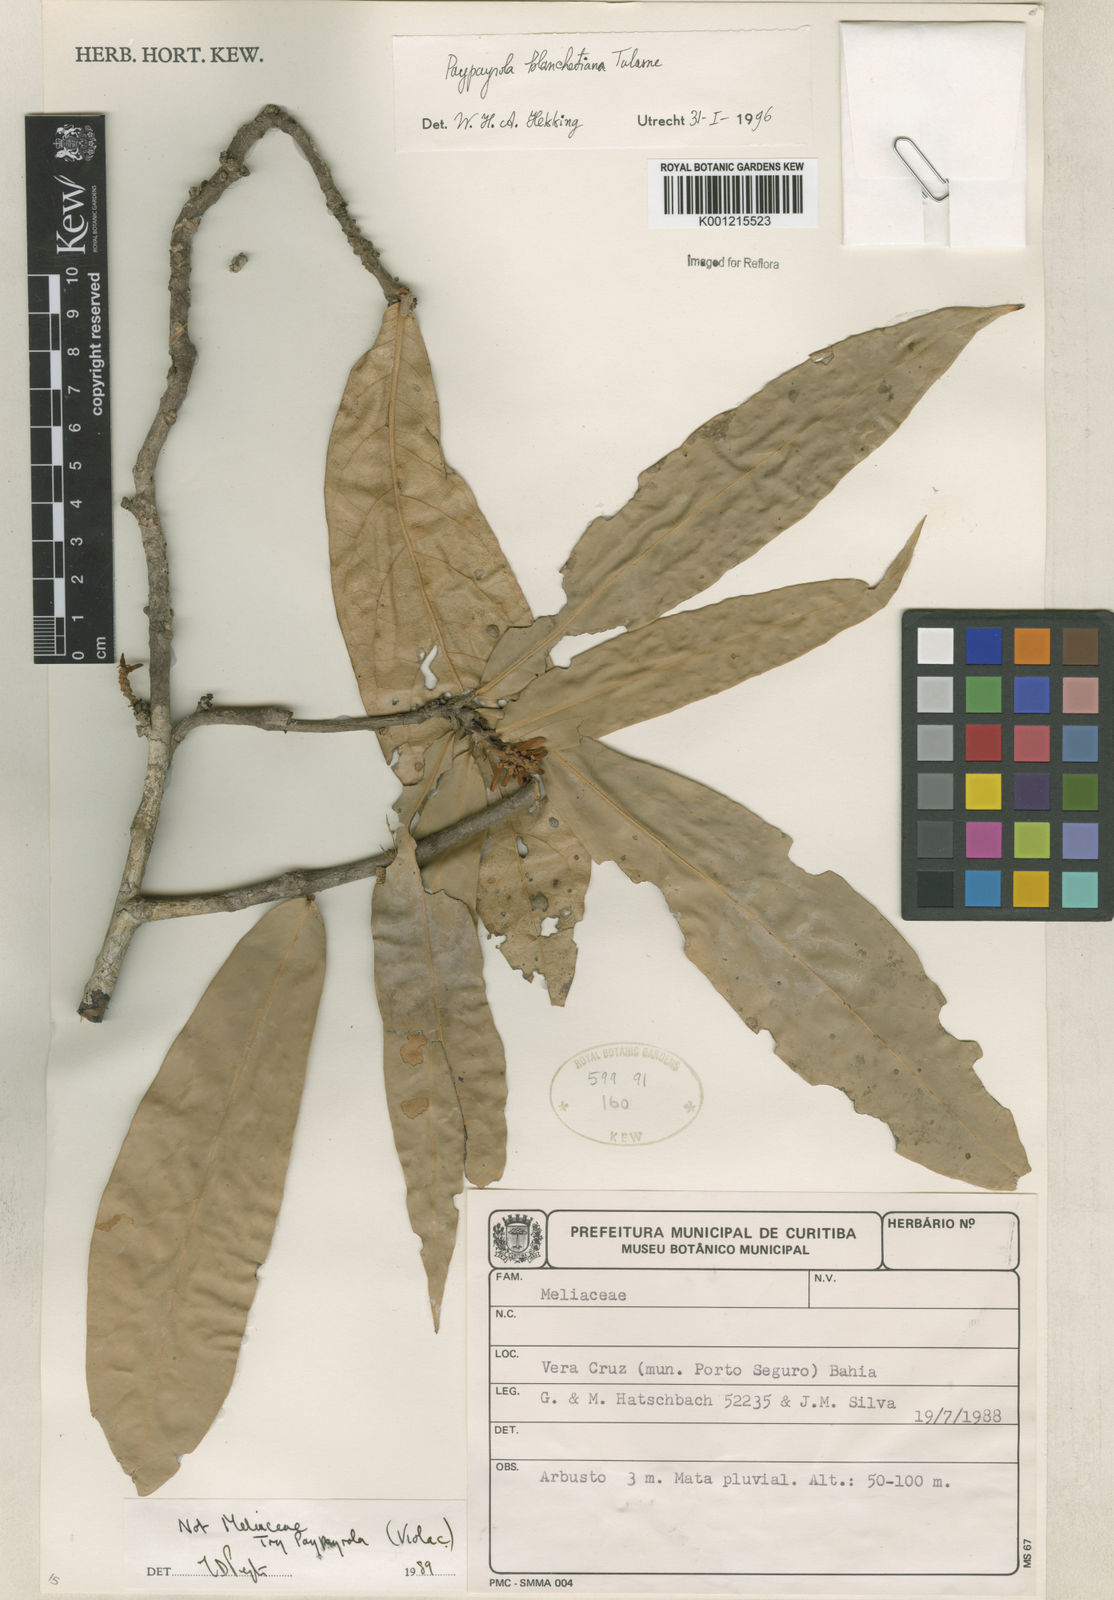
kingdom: Plantae
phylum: Tracheophyta
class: Magnoliopsida
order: Malpighiales
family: Violaceae
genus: Paypayrola
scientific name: Paypayrola blanchetiana
